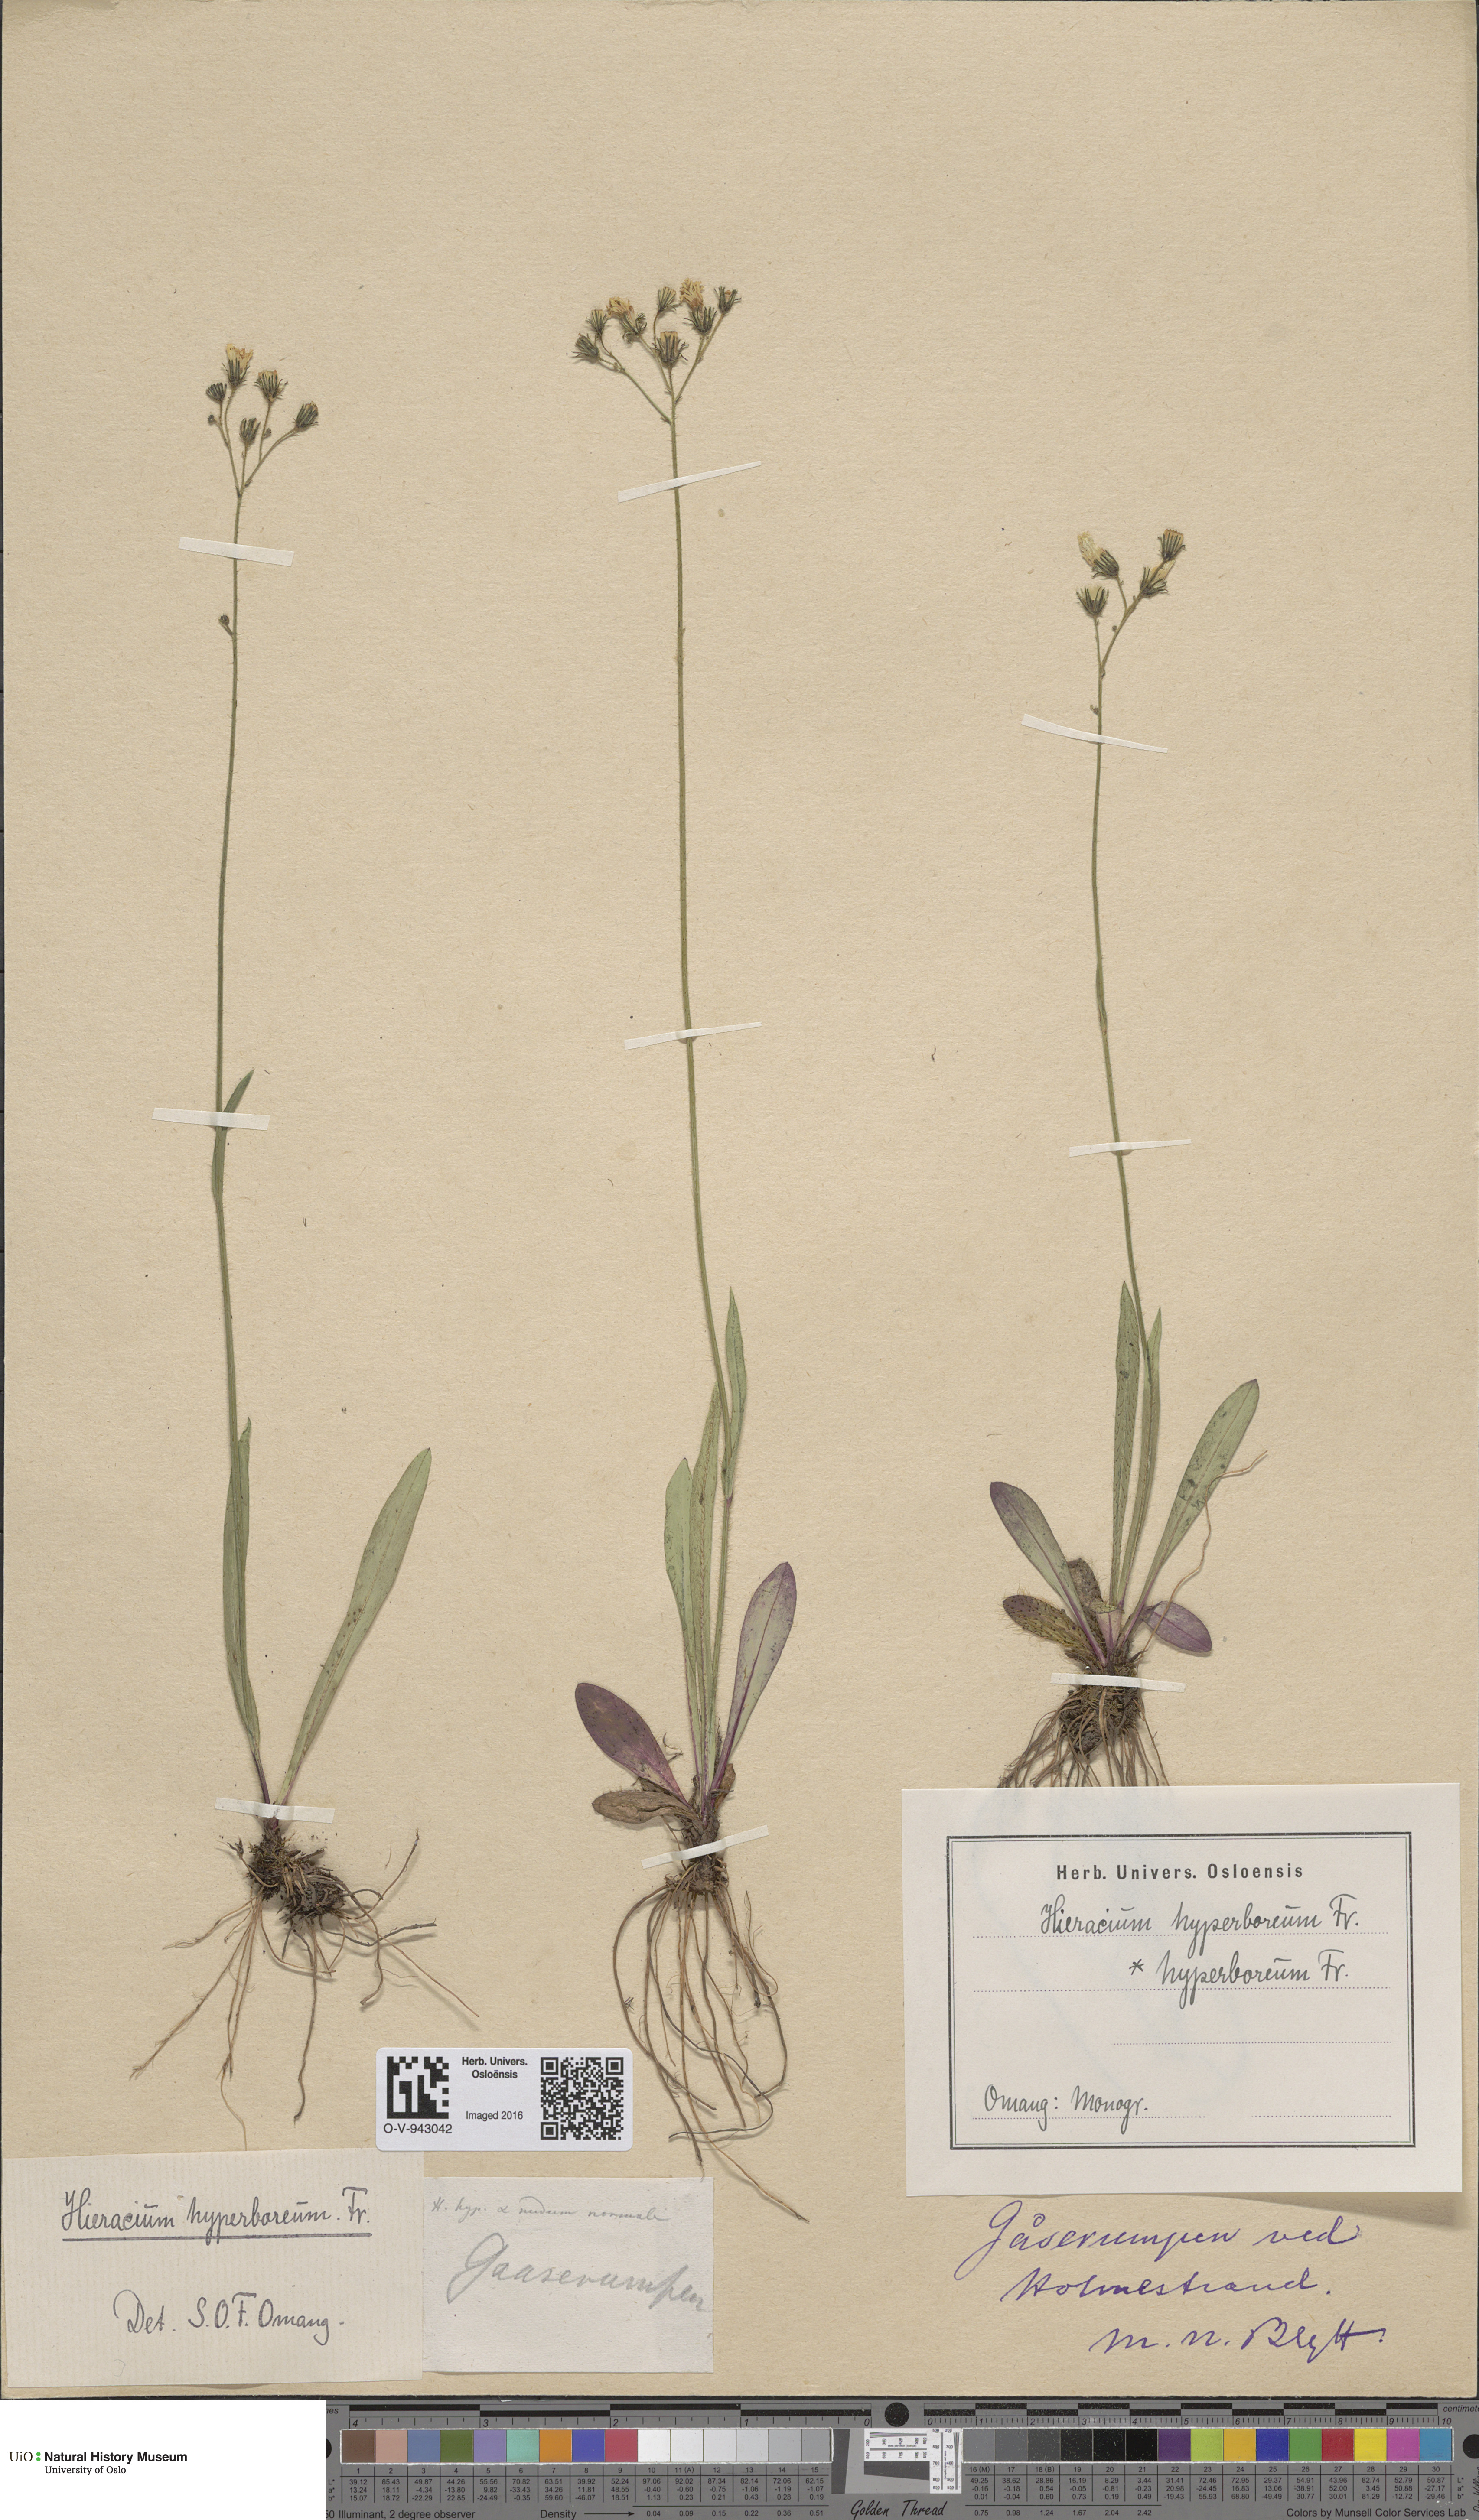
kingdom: Plantae
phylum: Tracheophyta
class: Magnoliopsida
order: Asterales
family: Asteraceae
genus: Pilosella
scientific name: Pilosella hyperborea
